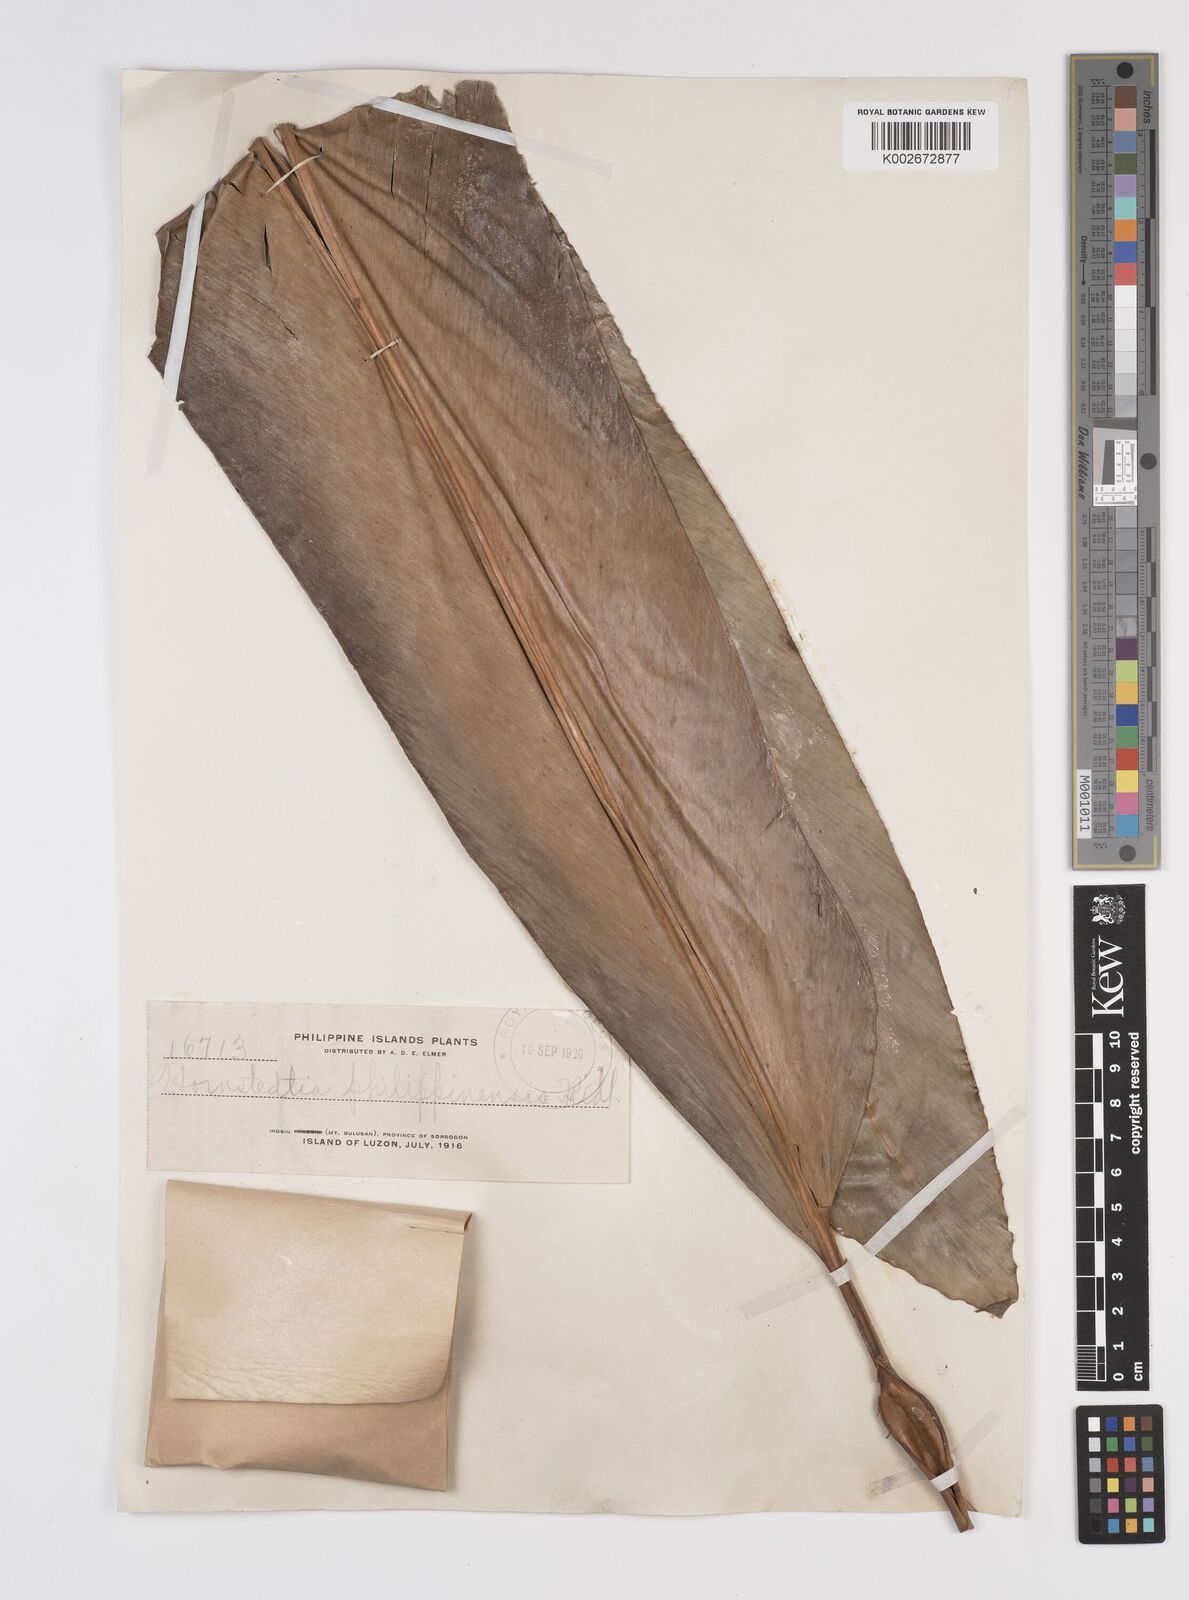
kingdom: Plantae
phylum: Tracheophyta
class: Liliopsida
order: Zingiberales
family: Zingiberaceae
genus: Etlingera
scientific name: Etlingera philippinensis
